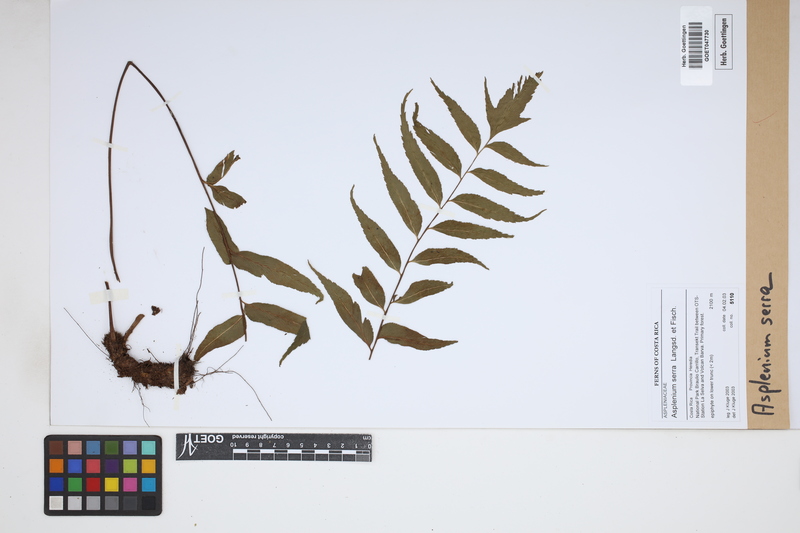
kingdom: Plantae
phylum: Tracheophyta
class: Polypodiopsida
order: Polypodiales
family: Aspleniaceae
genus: Asplenium
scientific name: Asplenium serra
